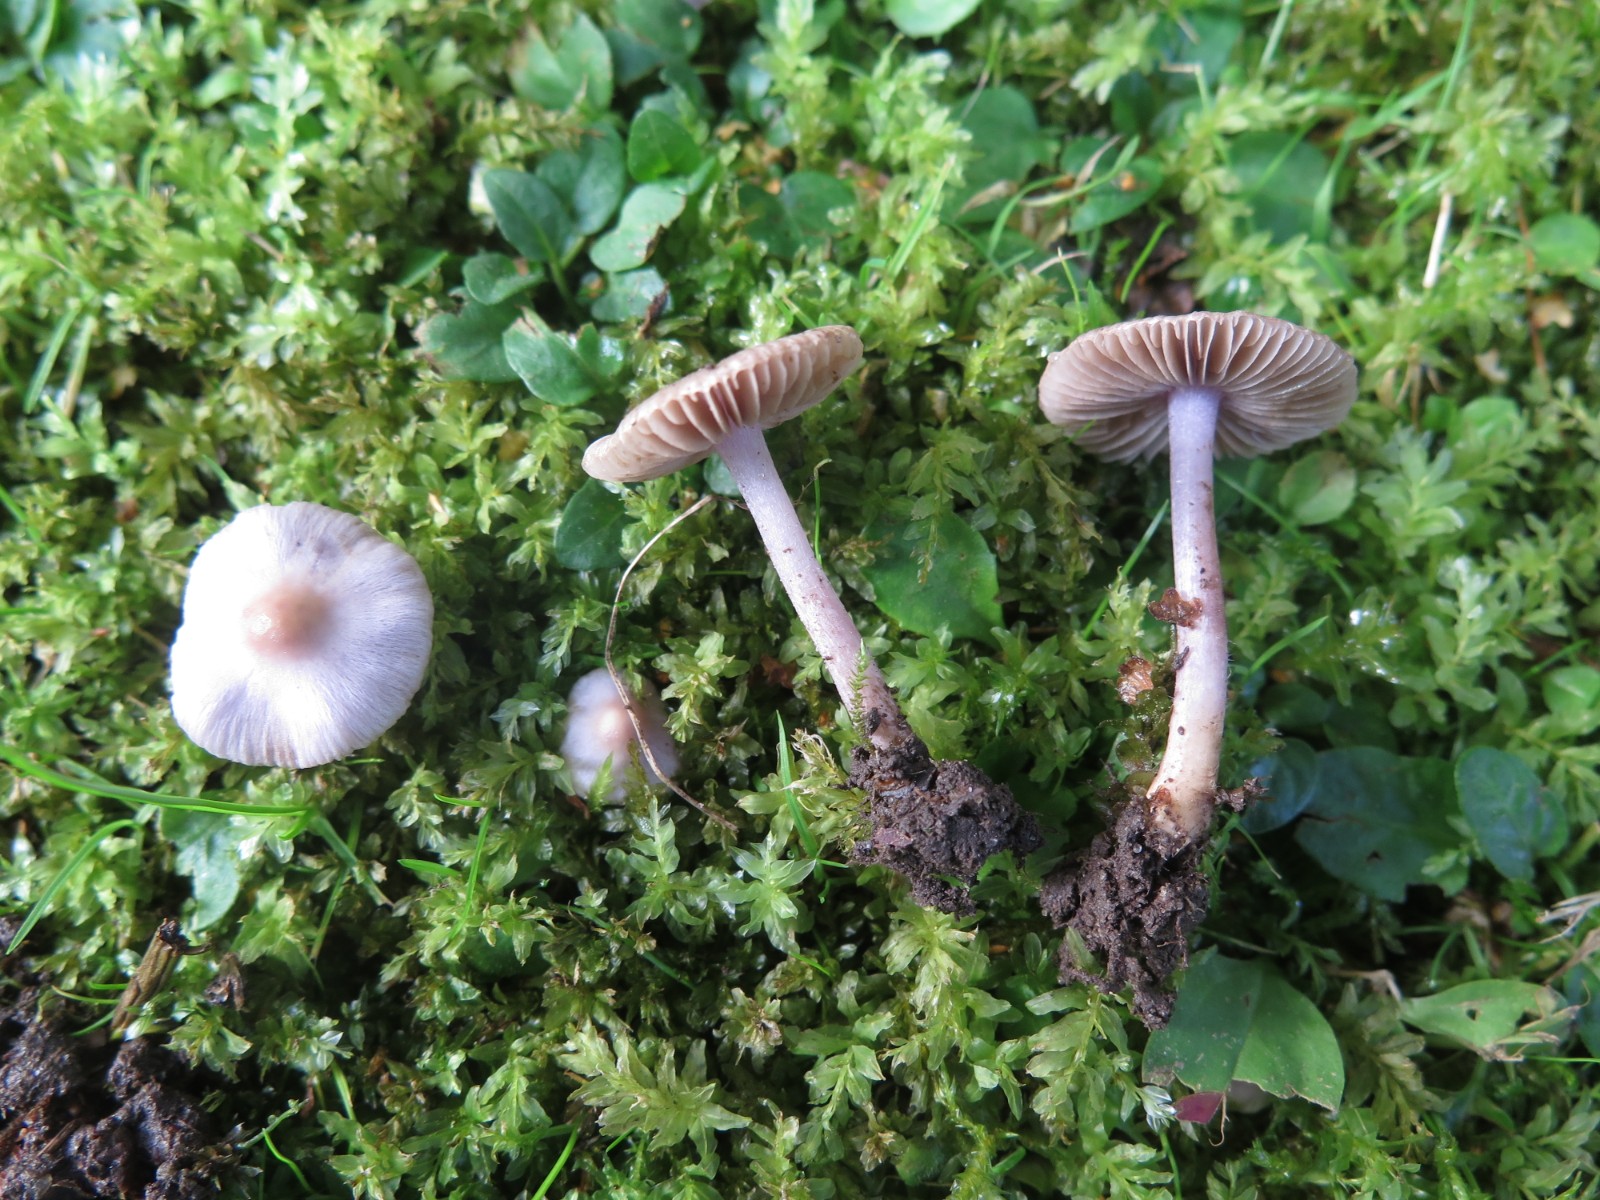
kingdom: Fungi
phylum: Basidiomycota
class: Agaricomycetes
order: Agaricales
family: Inocybaceae
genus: Inocybe
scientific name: Inocybe geophylla
